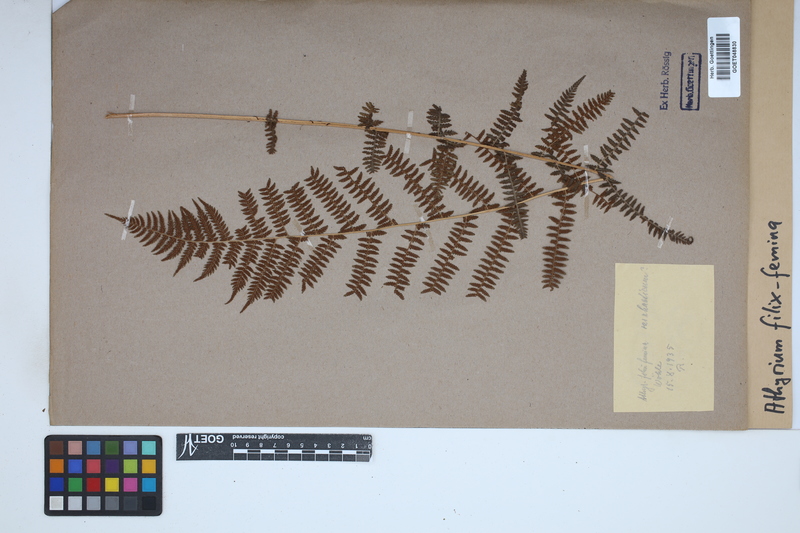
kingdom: Plantae
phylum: Tracheophyta
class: Polypodiopsida
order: Polypodiales
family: Athyriaceae
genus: Athyrium
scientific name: Athyrium filix-femina
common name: Lady fern
